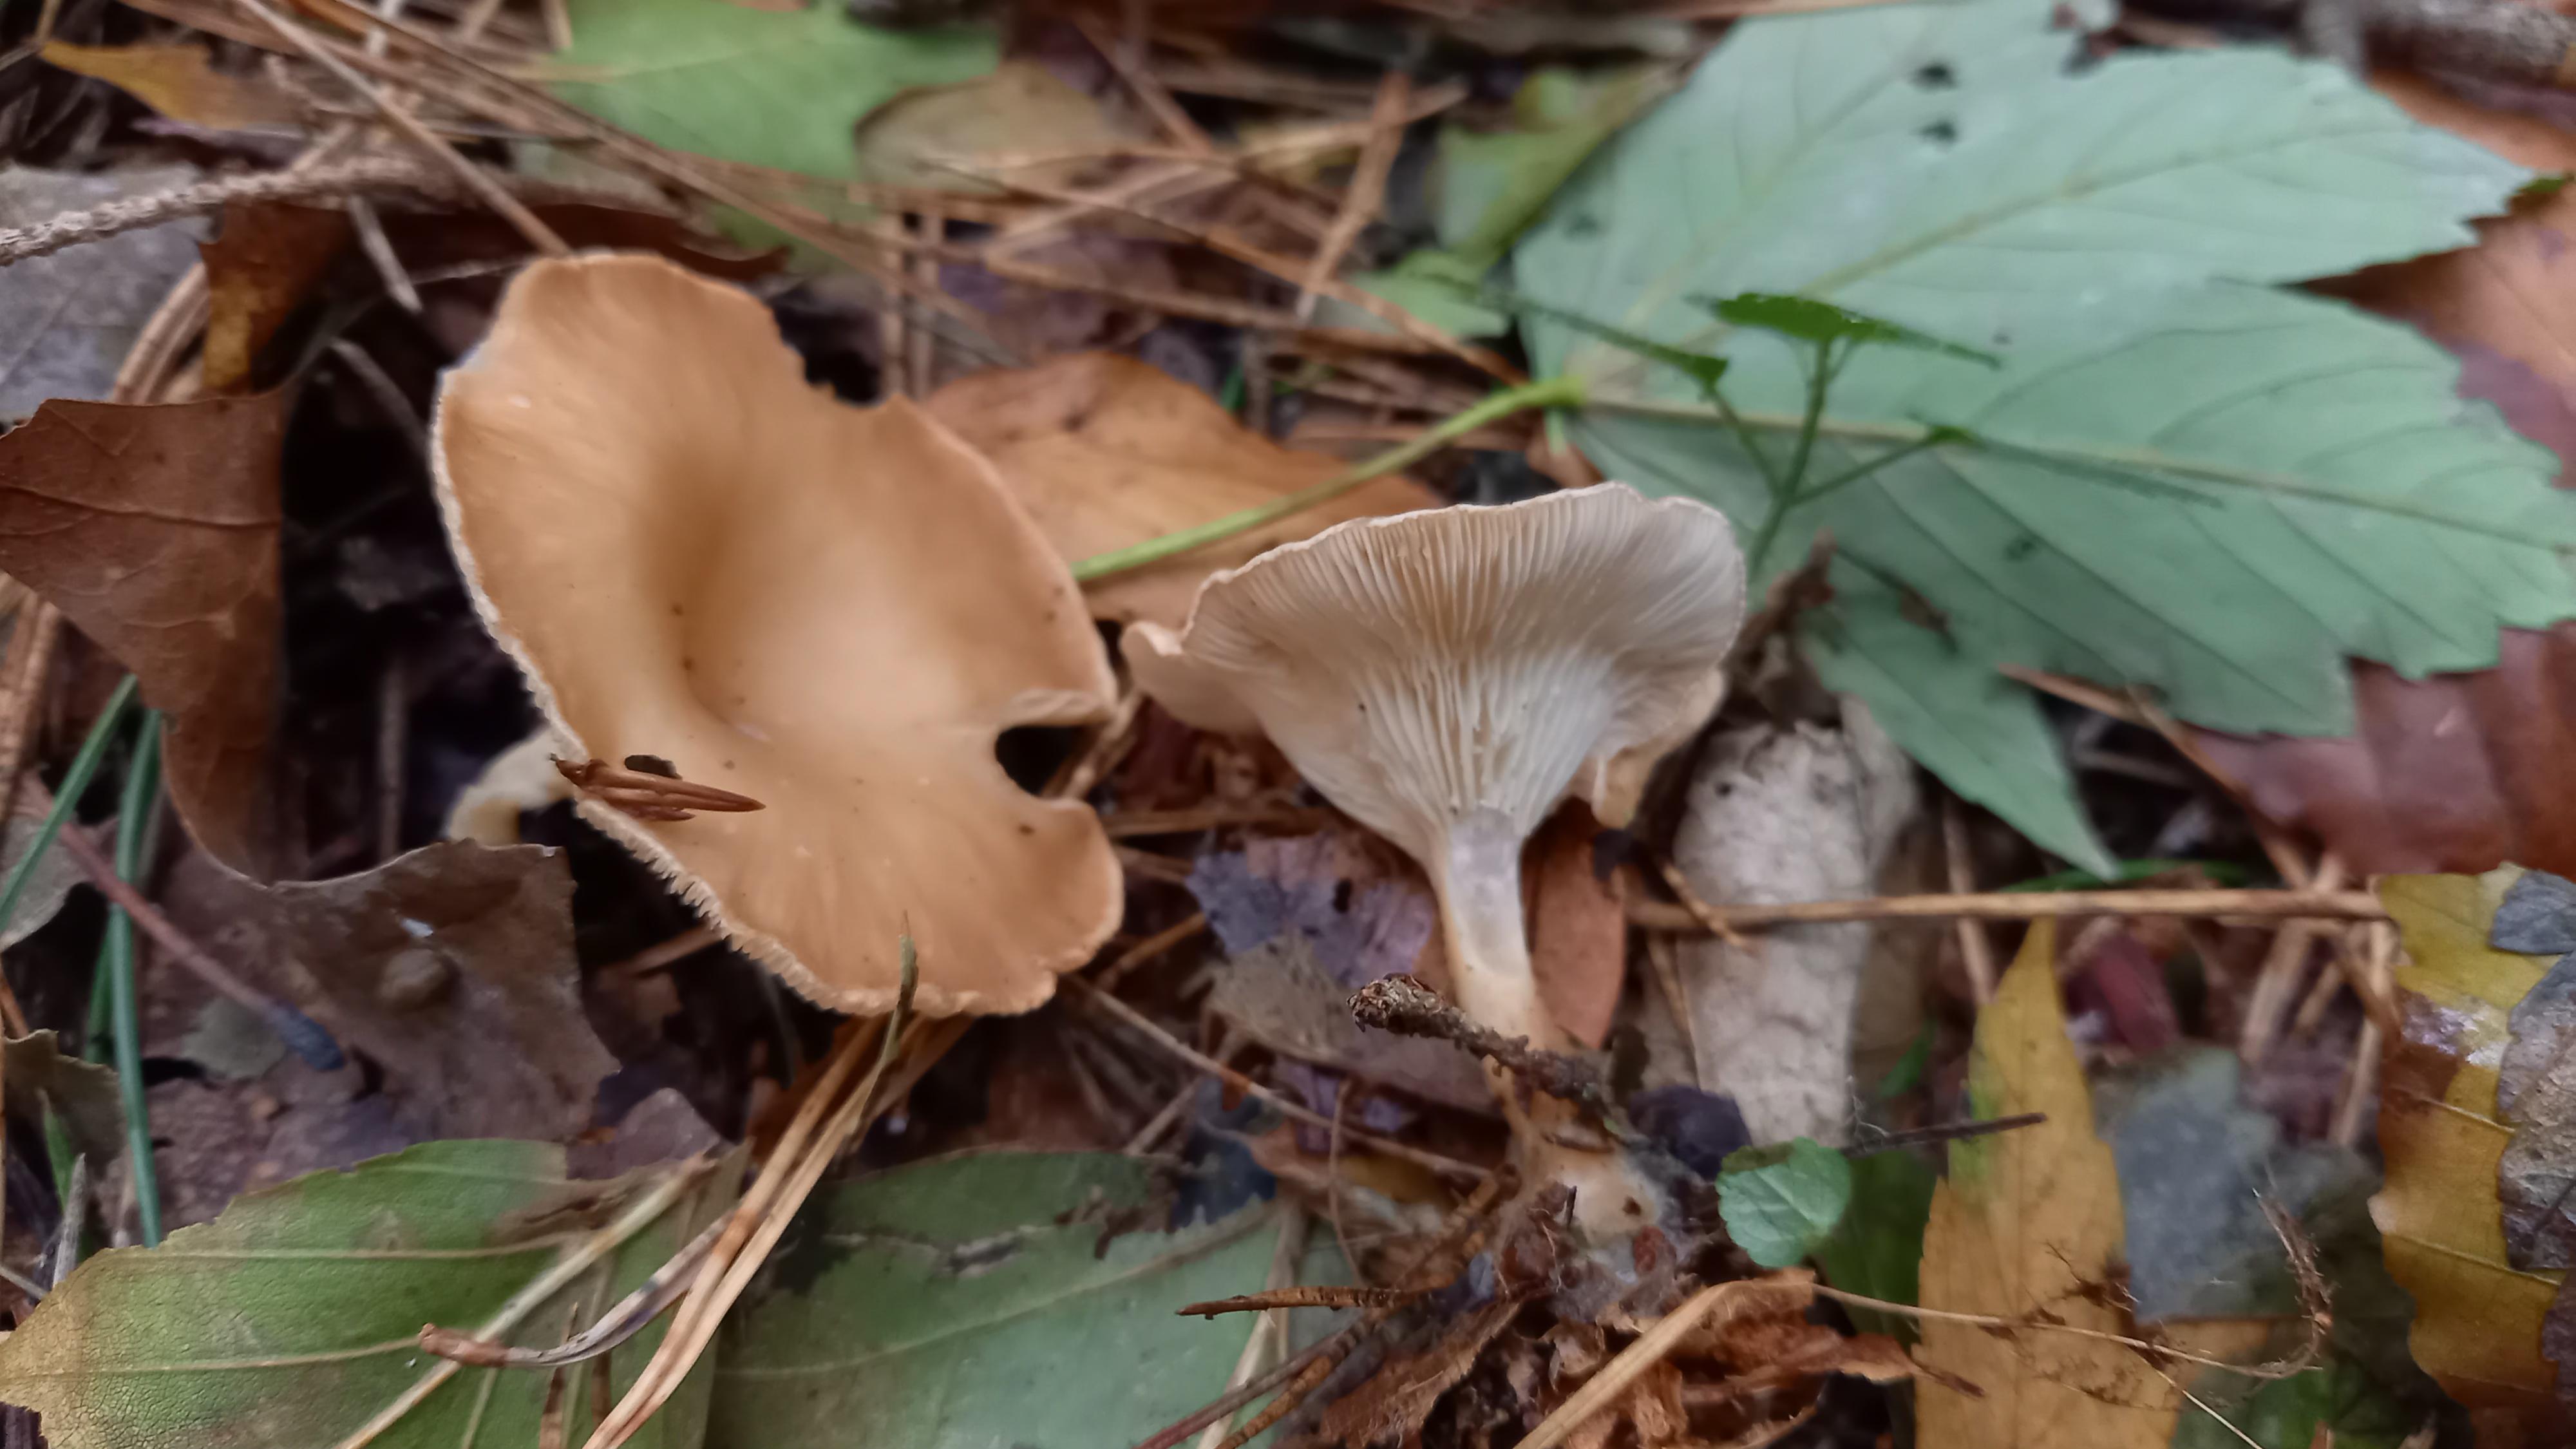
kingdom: Fungi
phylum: Basidiomycota
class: Agaricomycetes
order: Agaricales
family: Tricholomataceae
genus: Infundibulicybe
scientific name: Infundibulicybe gibba
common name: almindelig tragthat
